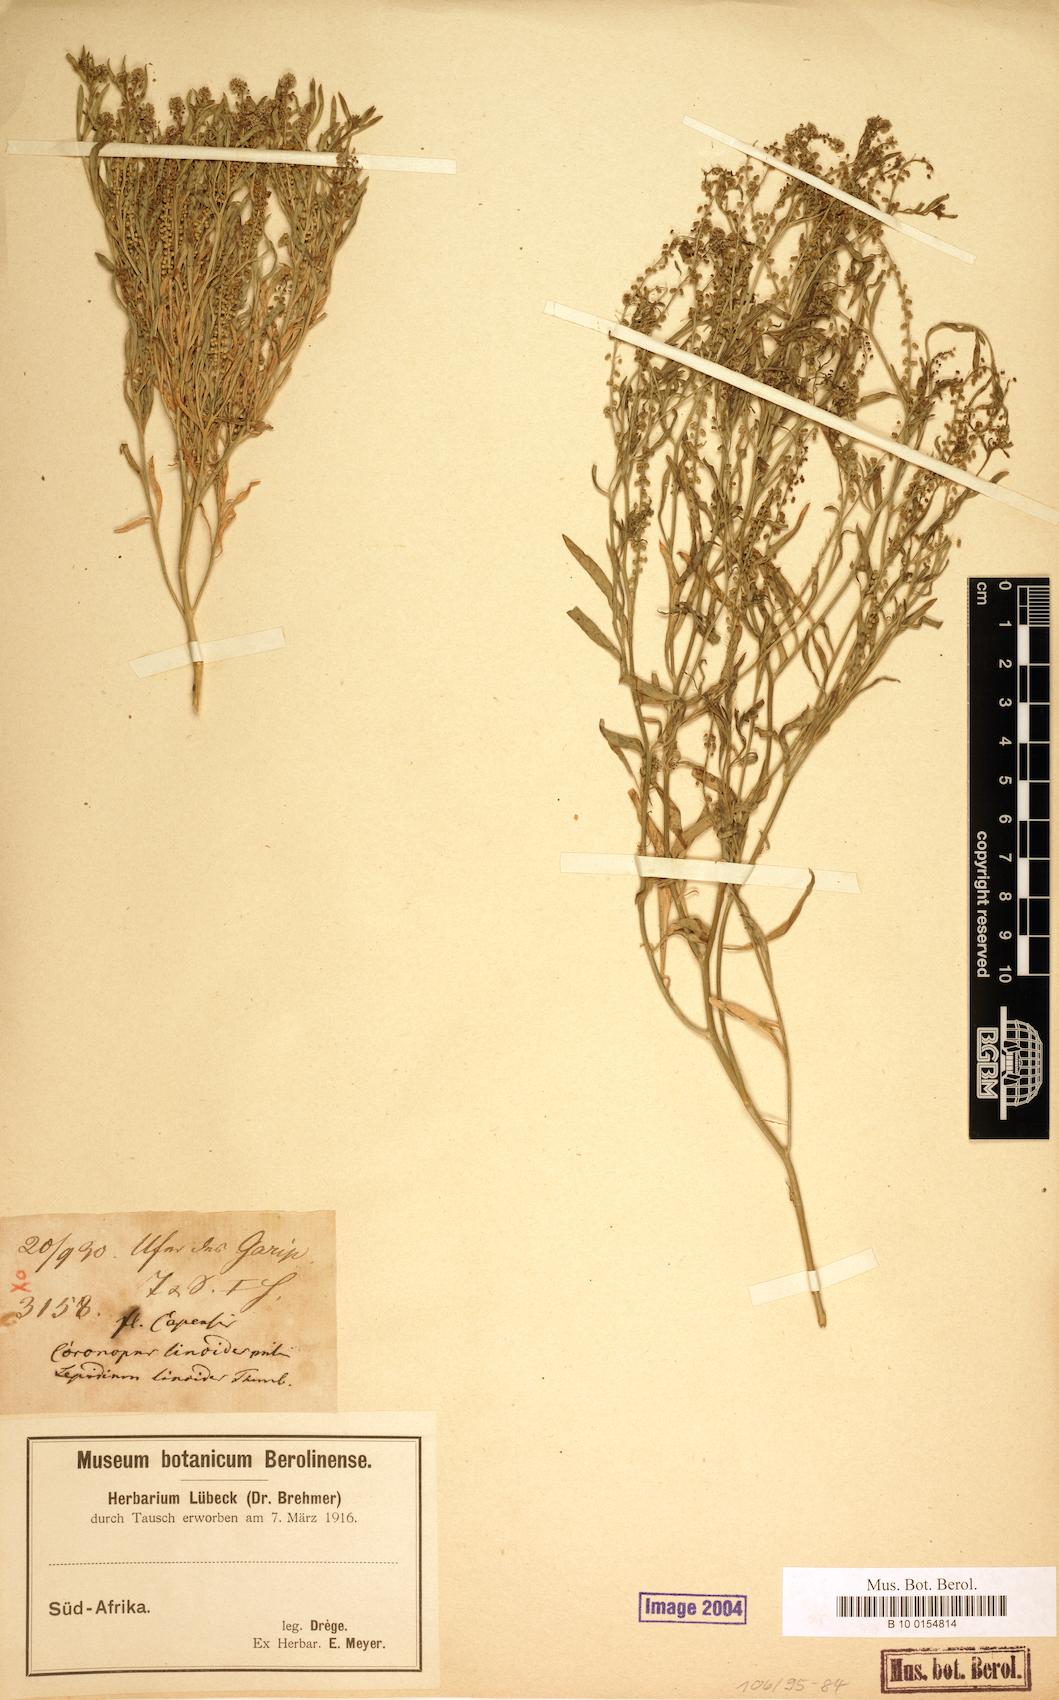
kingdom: Plantae
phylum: Tracheophyta
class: Magnoliopsida
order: Brassicales
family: Brassicaceae
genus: Lepidium
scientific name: Lepidium englerianum
